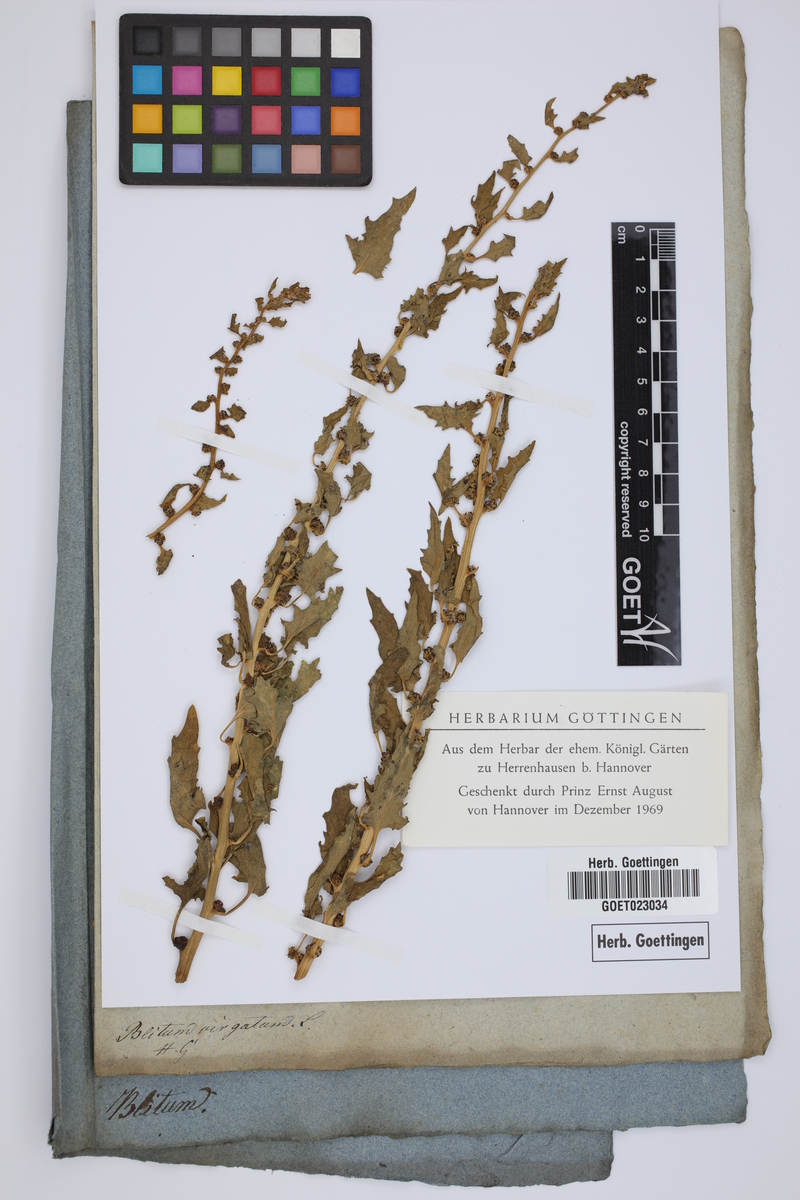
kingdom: Plantae
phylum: Tracheophyta
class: Magnoliopsida
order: Caryophyllales
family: Amaranthaceae
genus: Blitum
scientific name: Blitum virgatum
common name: Strawberry goosefoot
